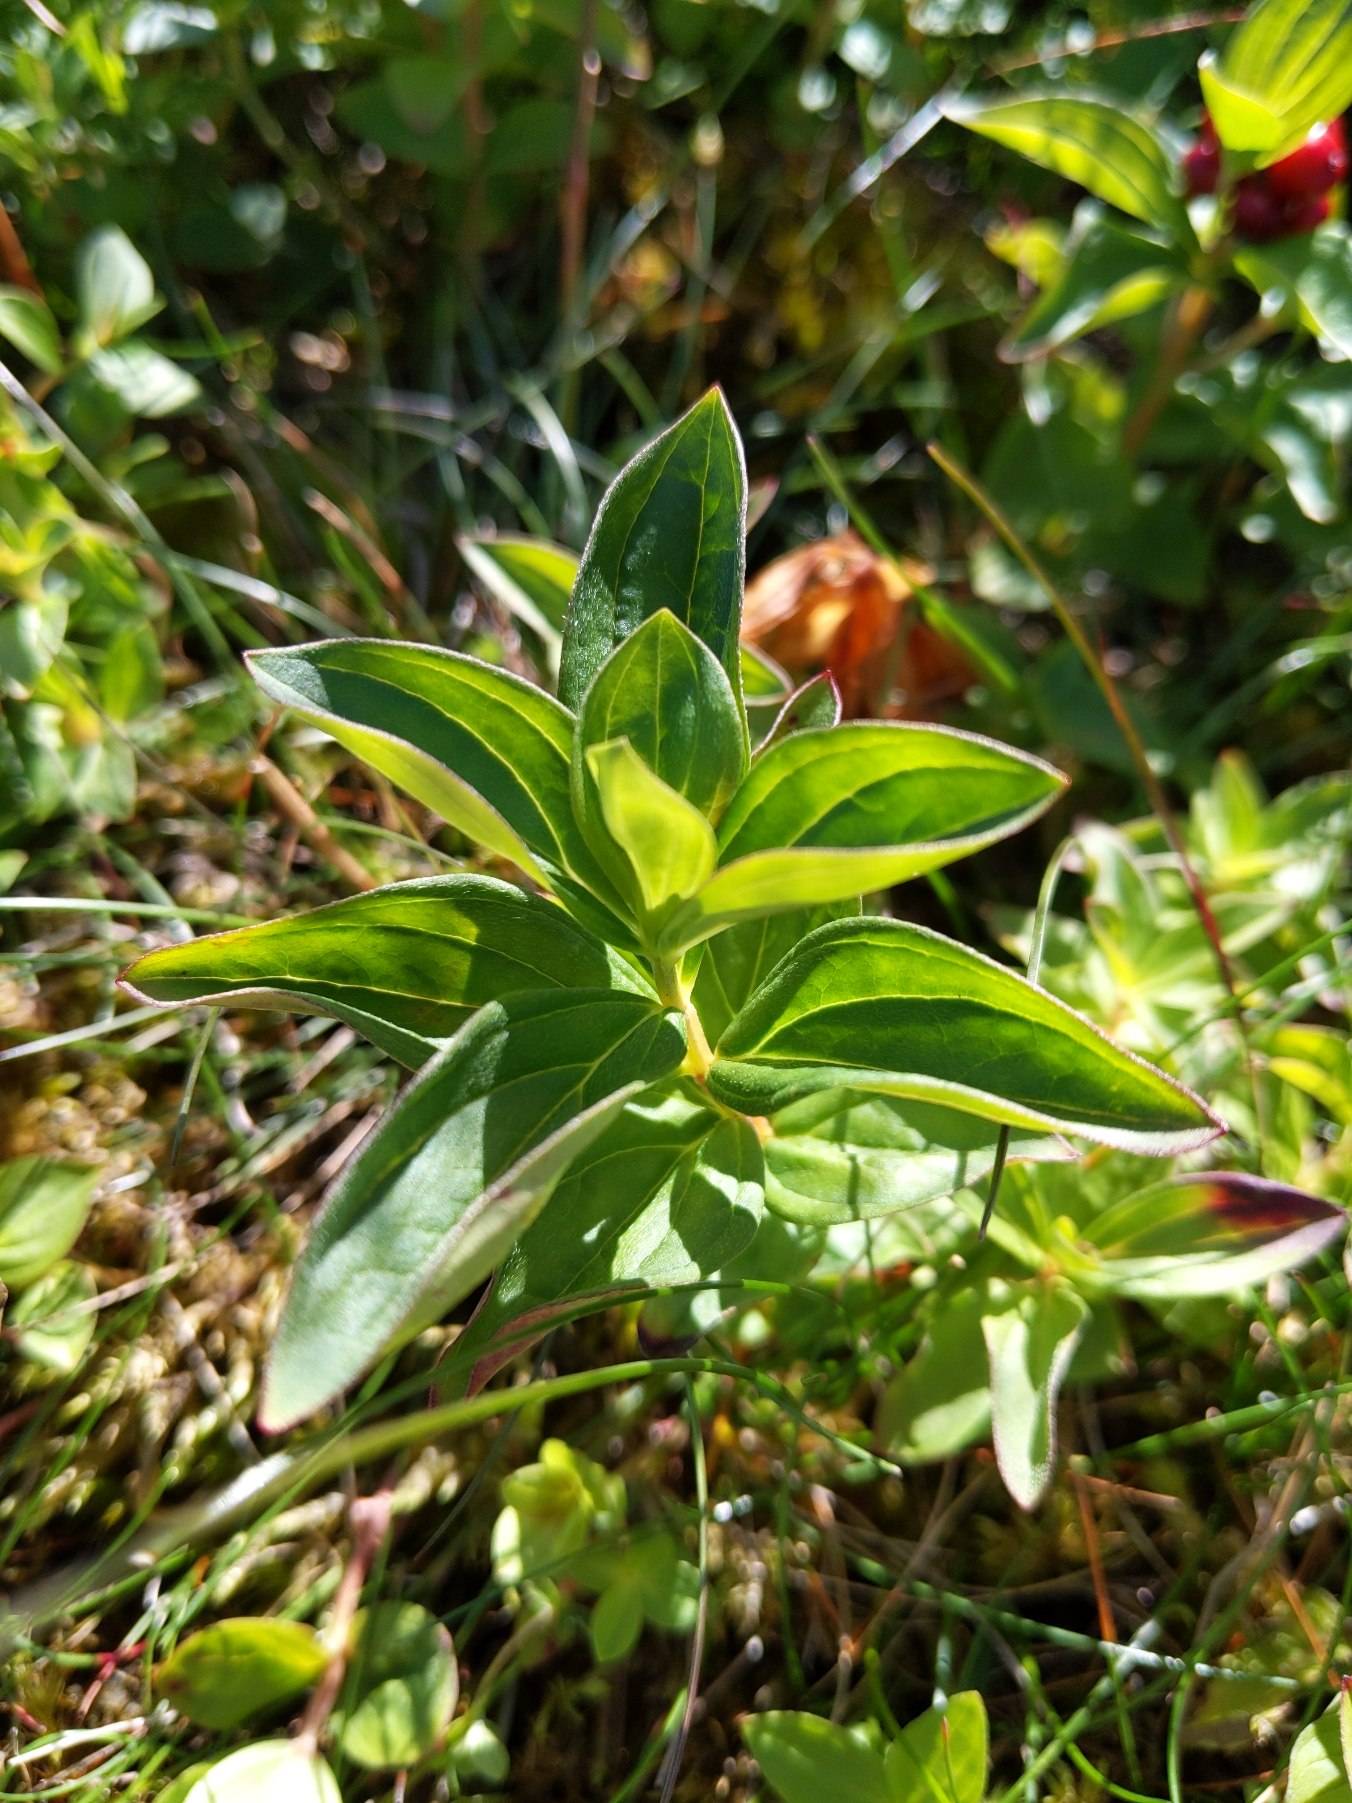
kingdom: Plantae
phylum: Tracheophyta
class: Magnoliopsida
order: Cornales
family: Cornaceae
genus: Cornus
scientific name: Cornus suecica
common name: Hønsebær
